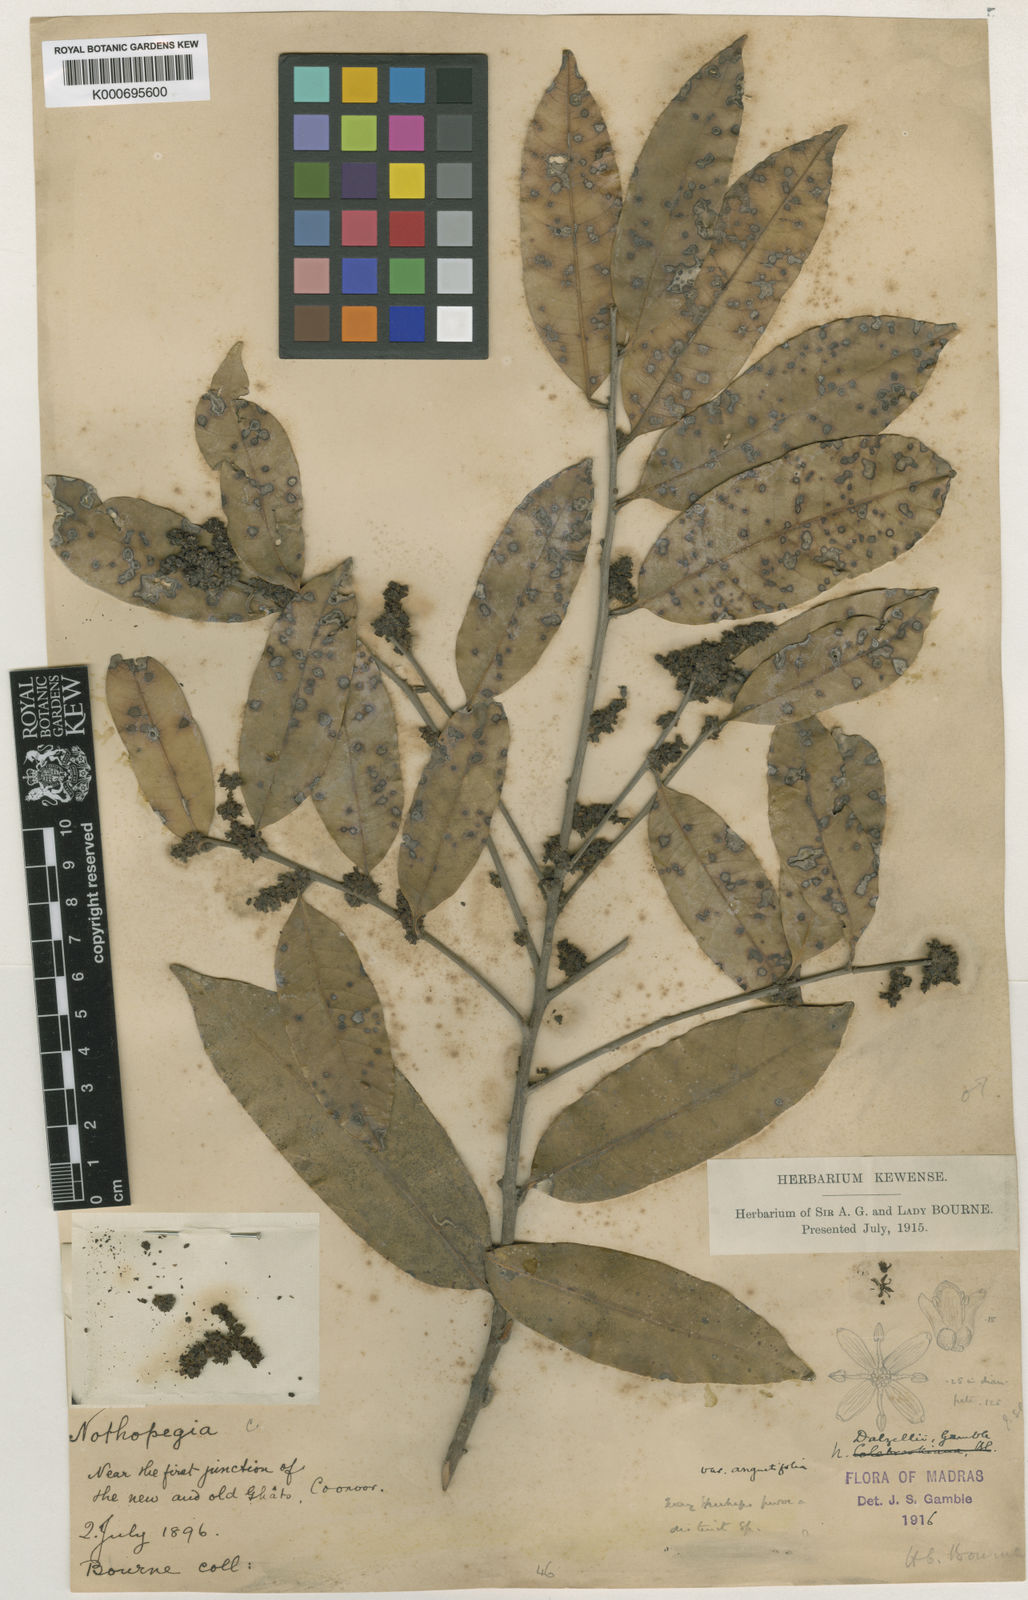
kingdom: Plantae
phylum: Tracheophyta
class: Magnoliopsida
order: Sapindales
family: Anacardiaceae
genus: Nothopegia
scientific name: Nothopegia castaneifolia
